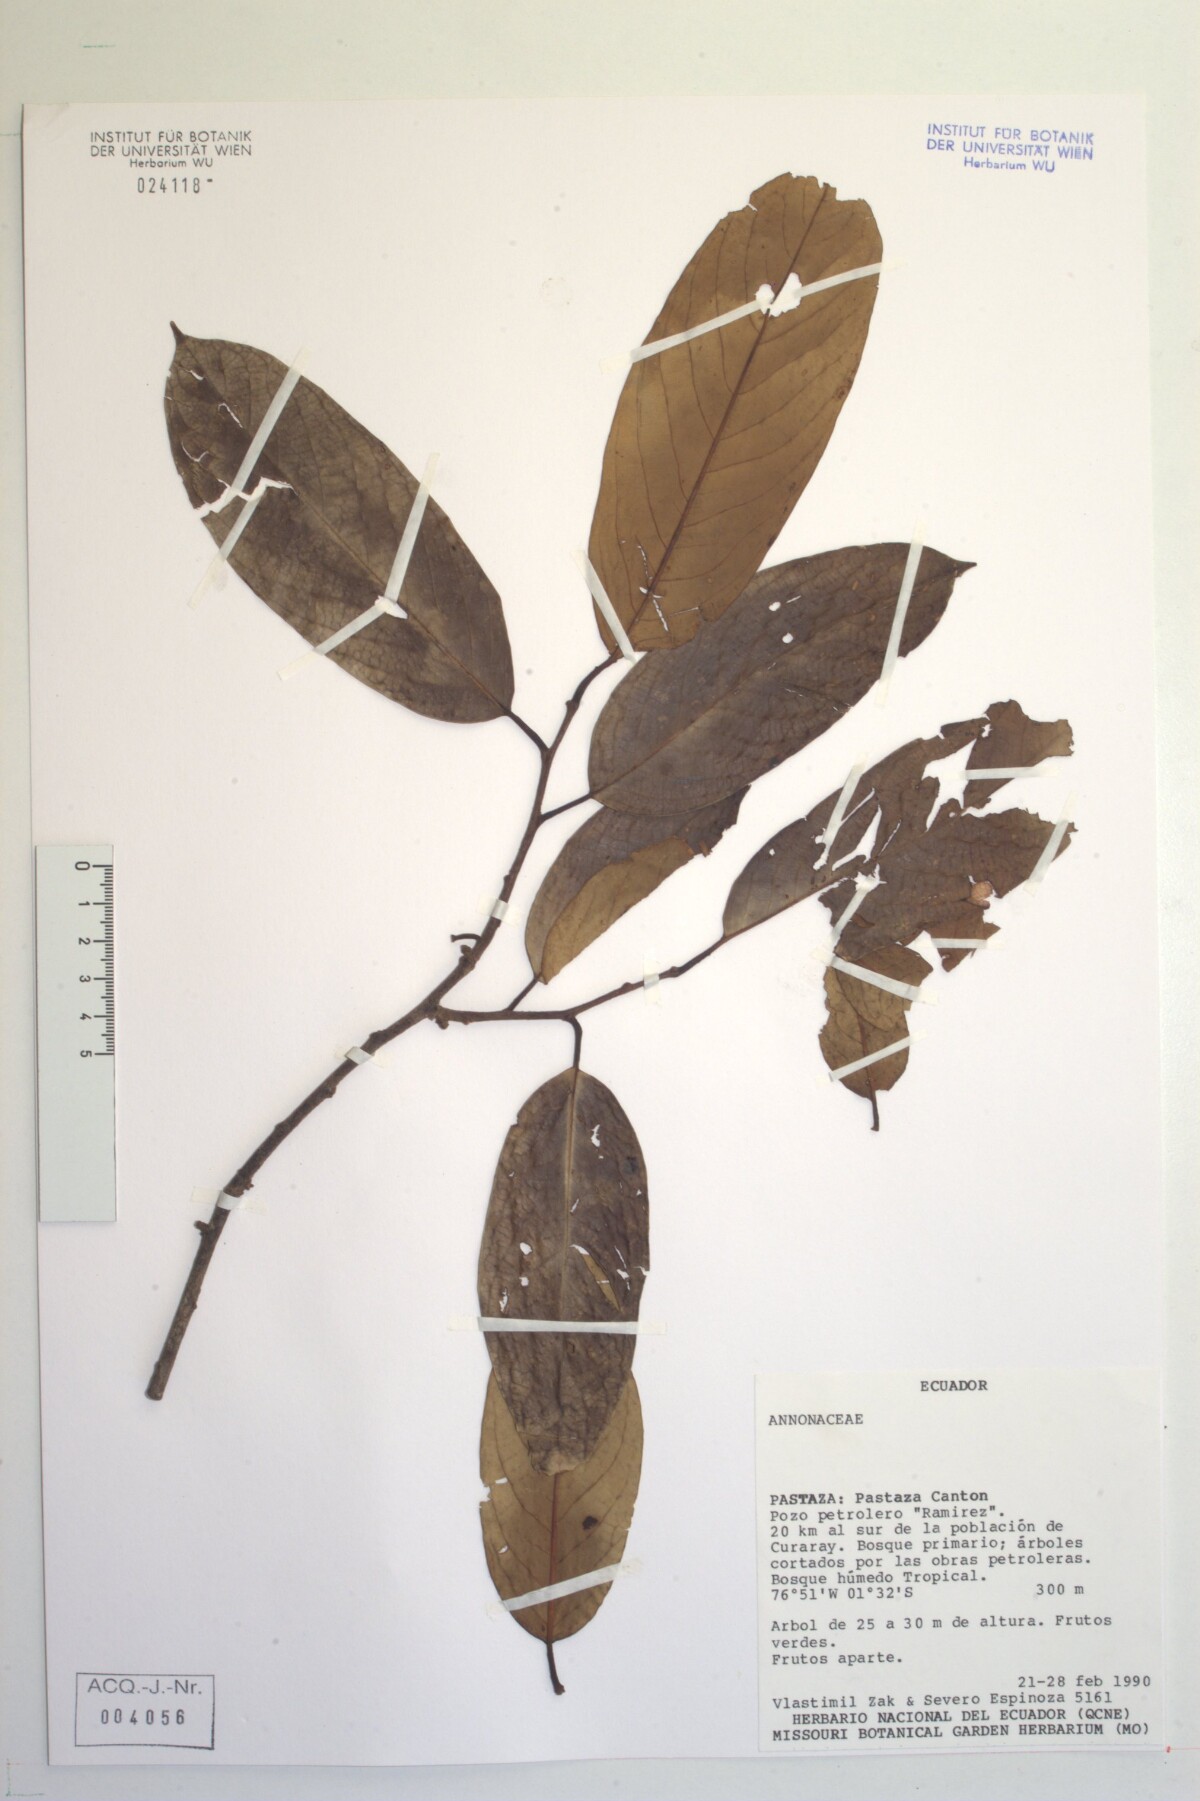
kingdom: Plantae
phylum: Tracheophyta
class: Magnoliopsida
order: Magnoliales
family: Annonaceae
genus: Annona
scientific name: Annona
